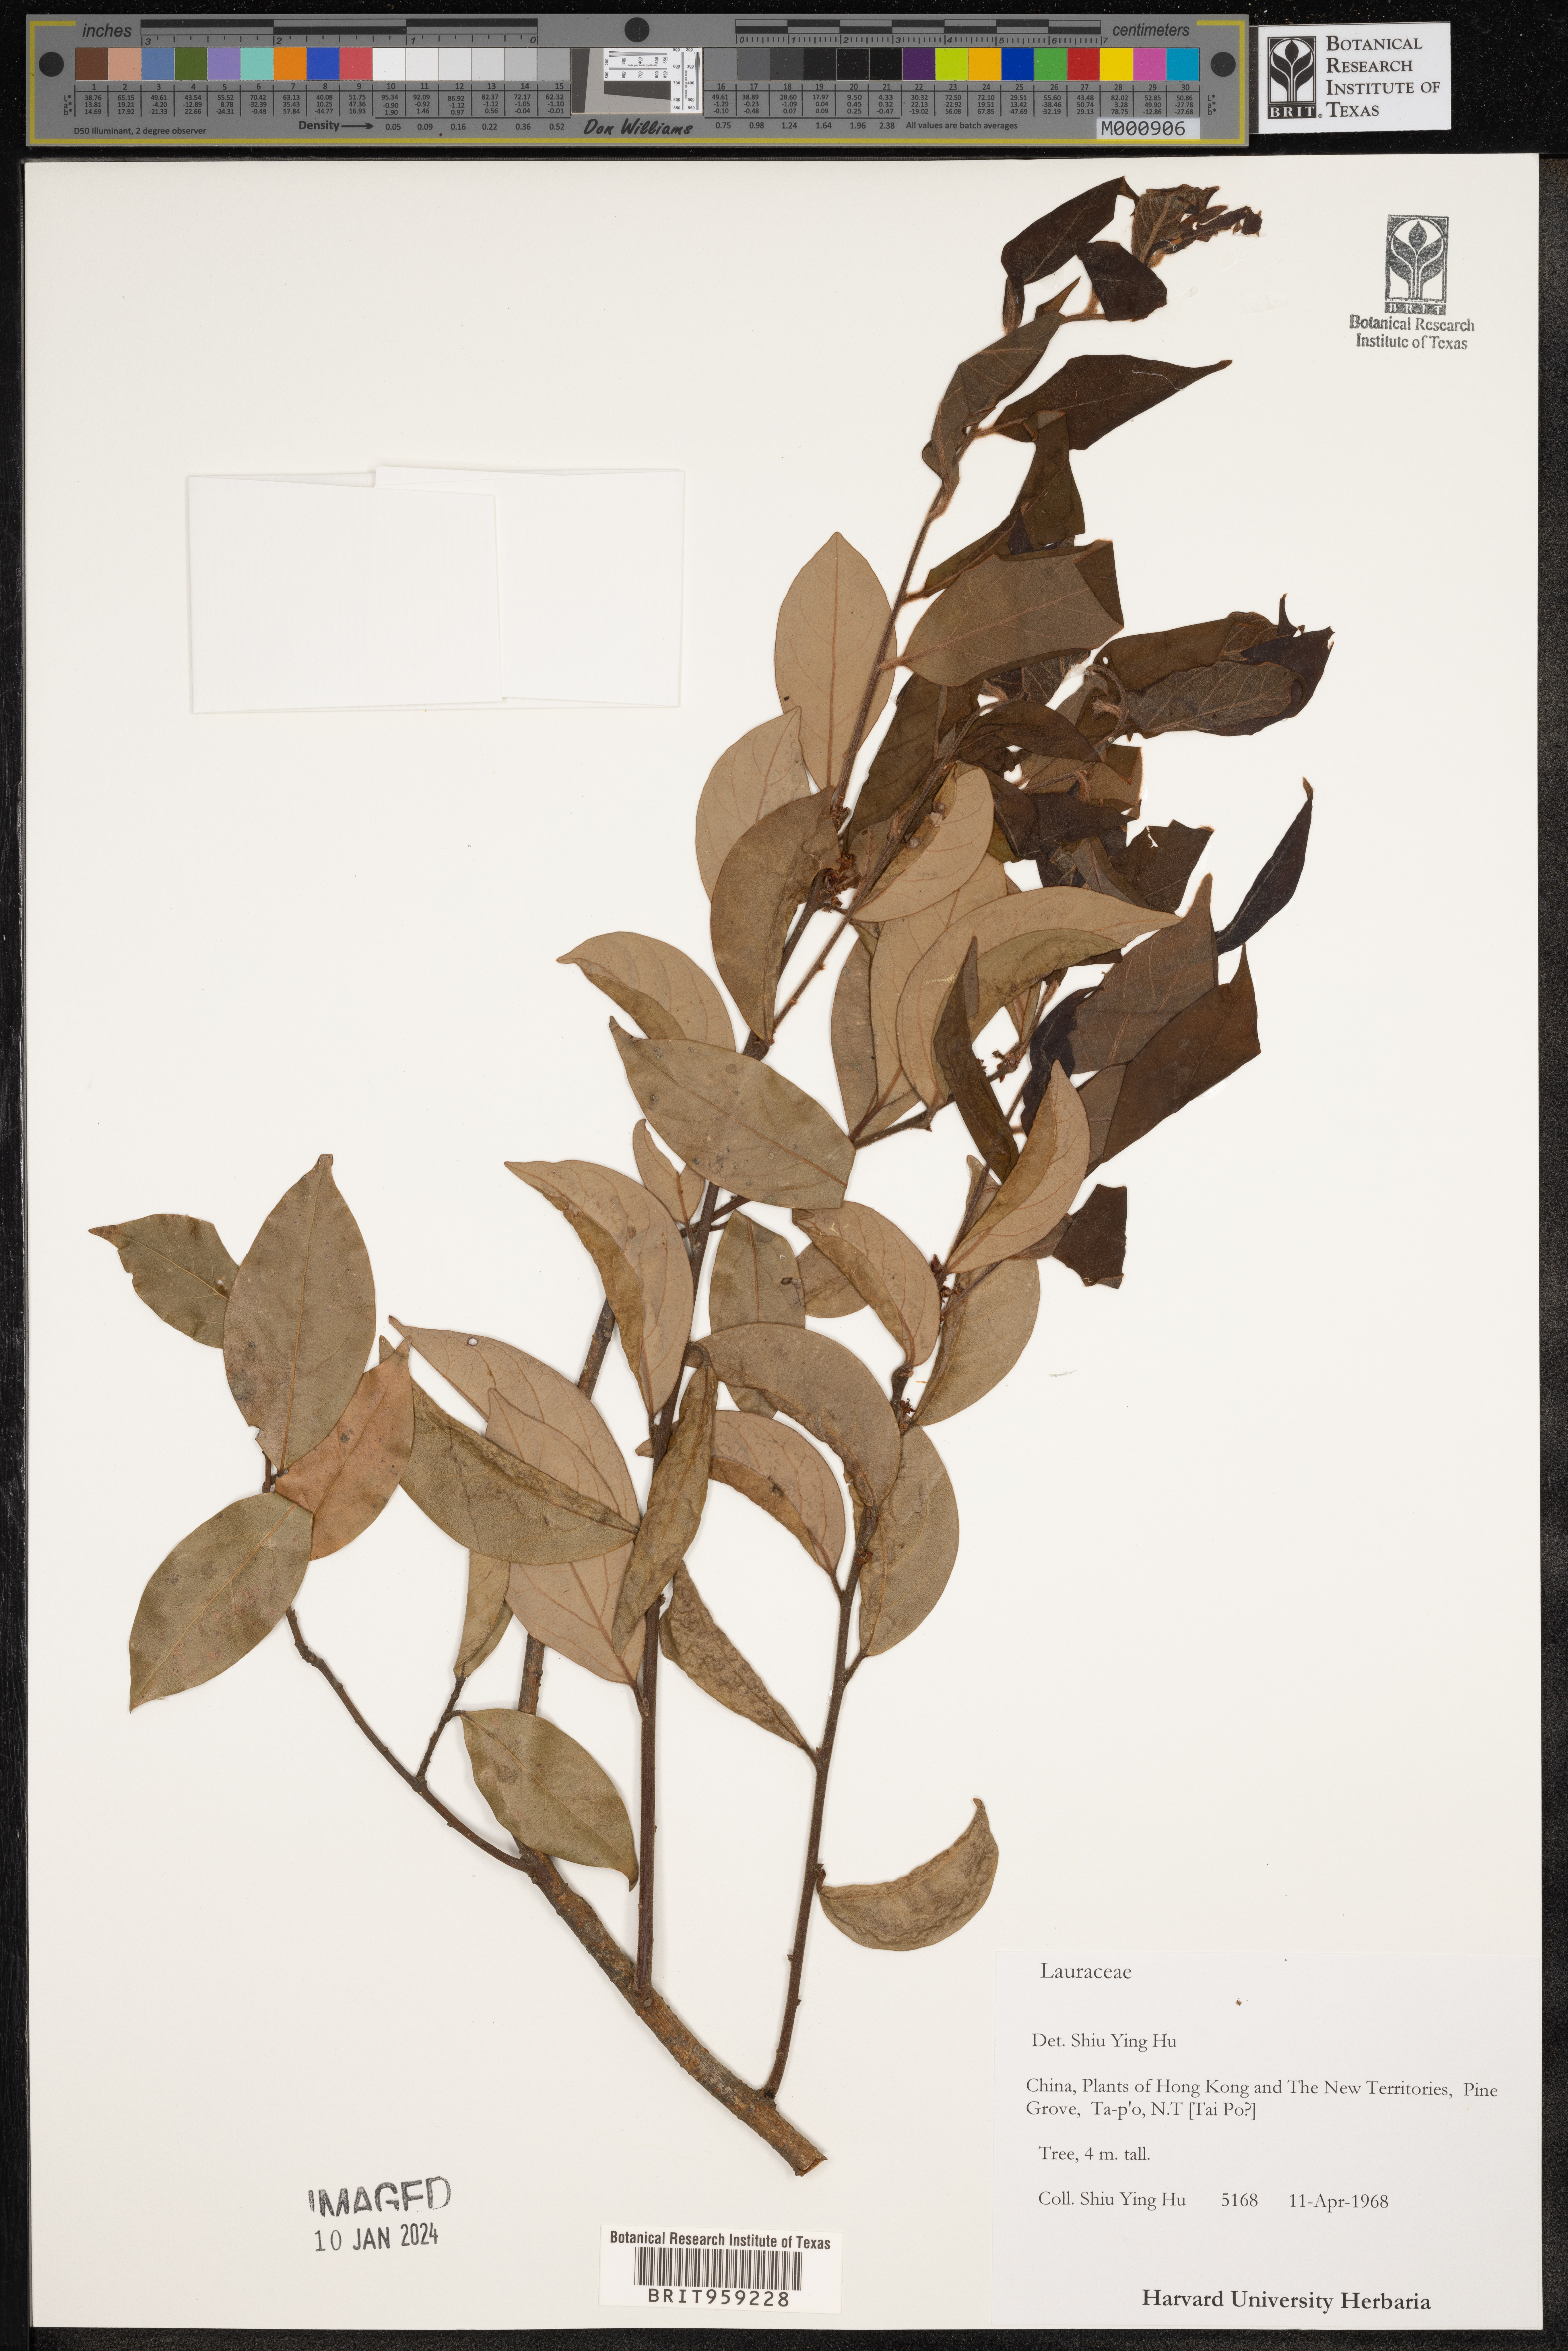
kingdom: Plantae
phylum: Tracheophyta
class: Magnoliopsida
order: Laurales
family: Lauraceae
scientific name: Lauraceae
